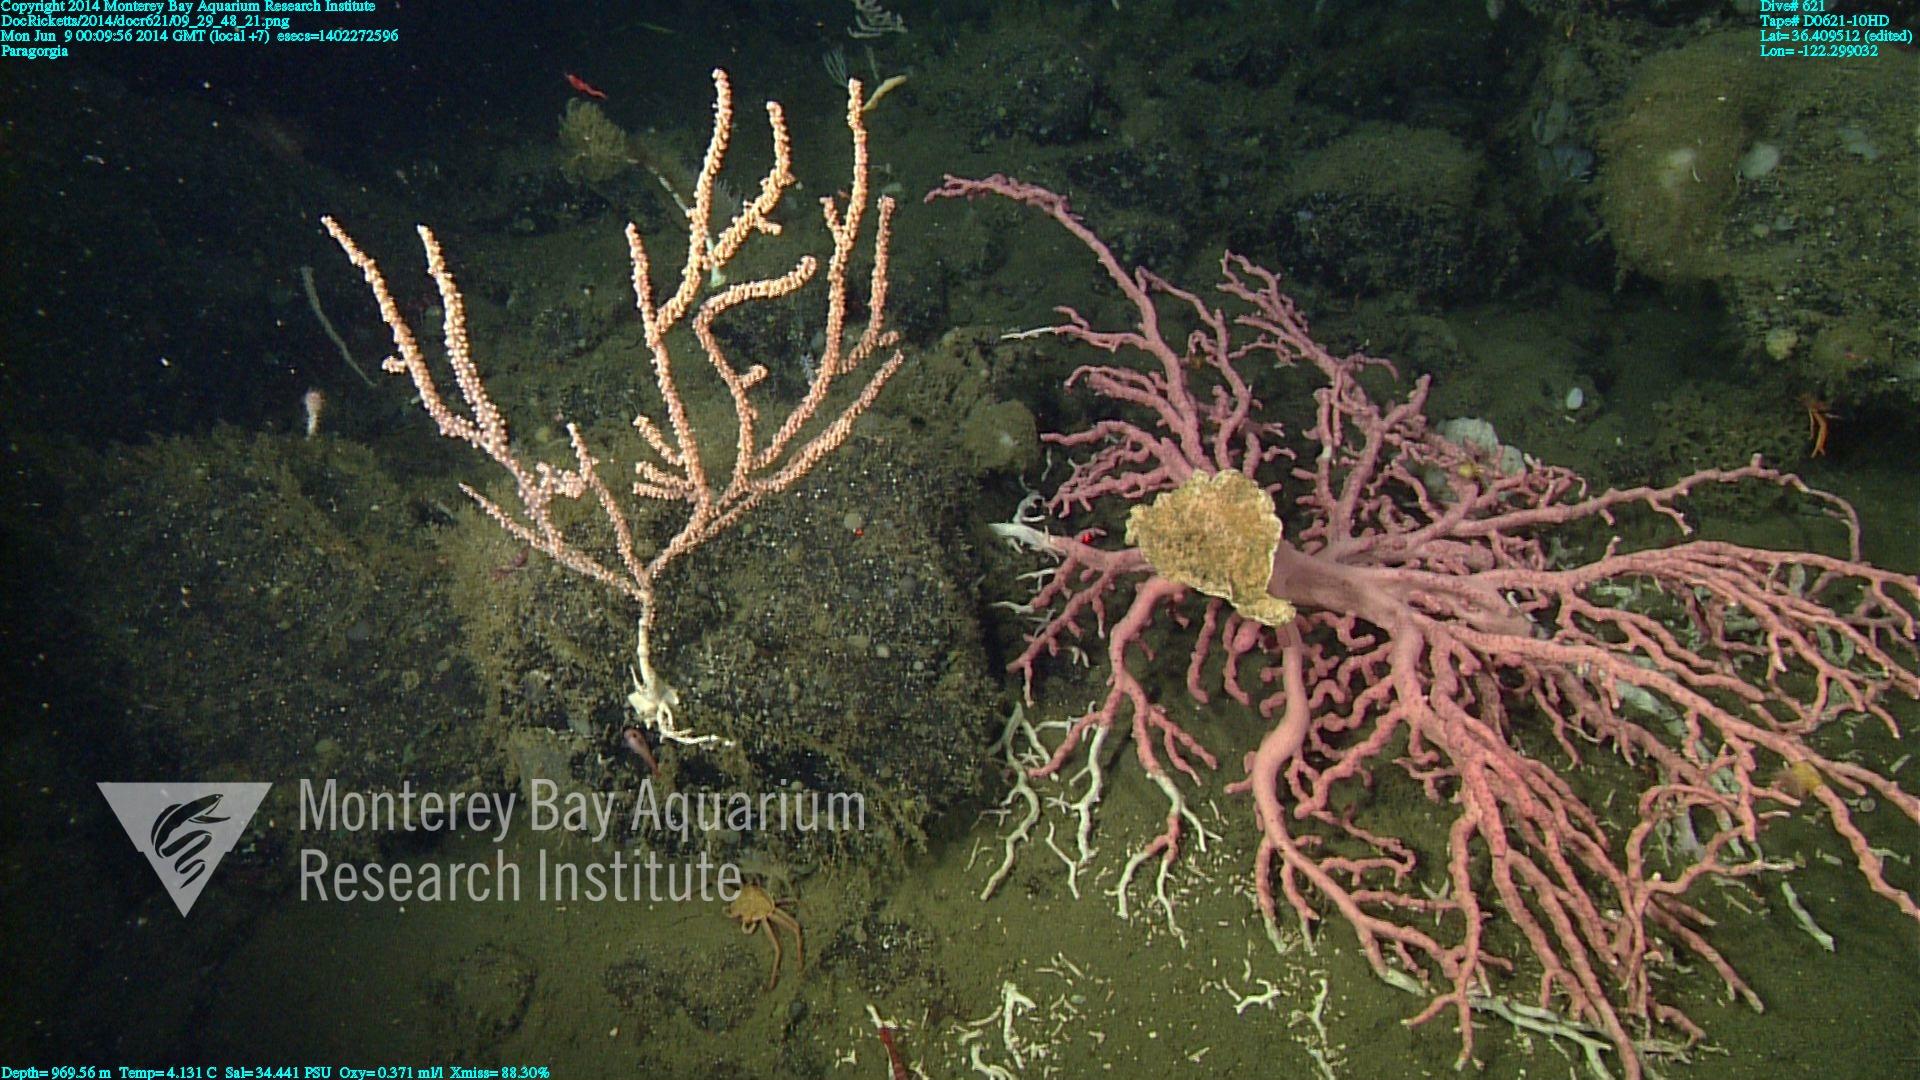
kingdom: Animalia
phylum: Cnidaria
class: Anthozoa
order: Scleralcyonacea
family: Coralliidae
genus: Paragorgia
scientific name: Paragorgia arborea
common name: Bubble gum coral
